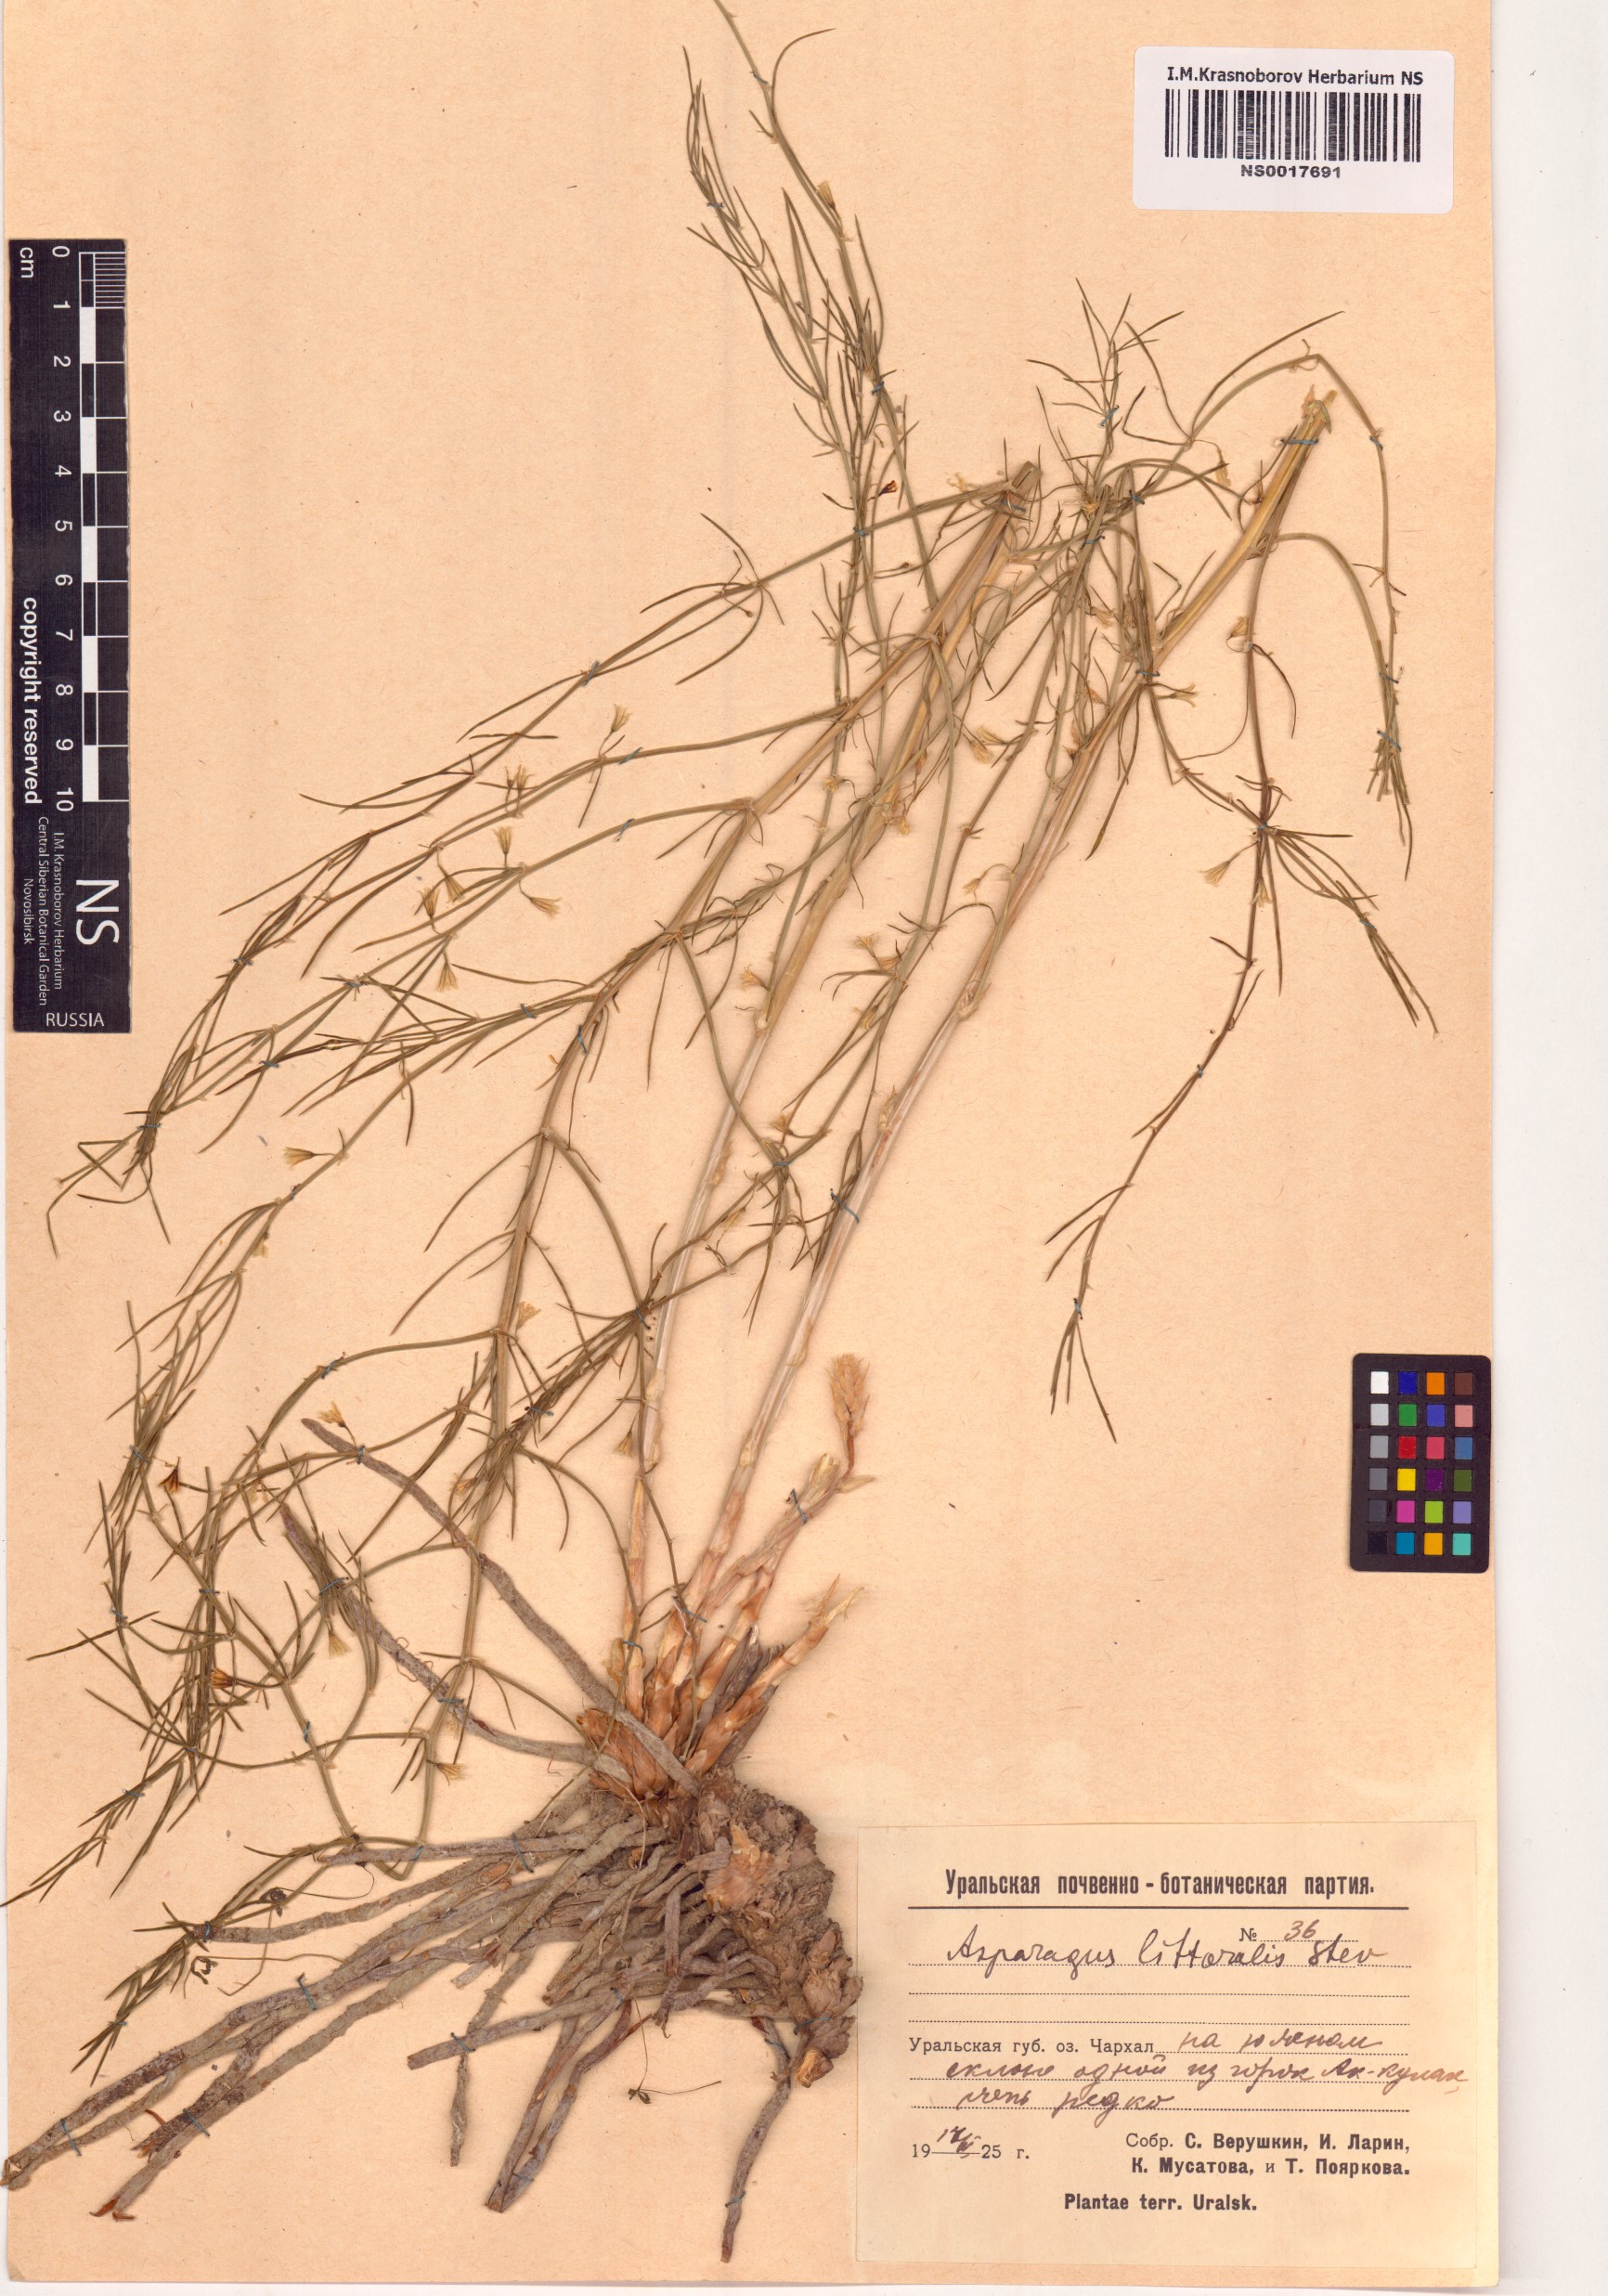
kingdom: Plantae
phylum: Tracheophyta
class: Liliopsida
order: Asparagales
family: Asparagaceae
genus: Asparagus
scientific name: Asparagus officinalis
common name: Garden asparagus
